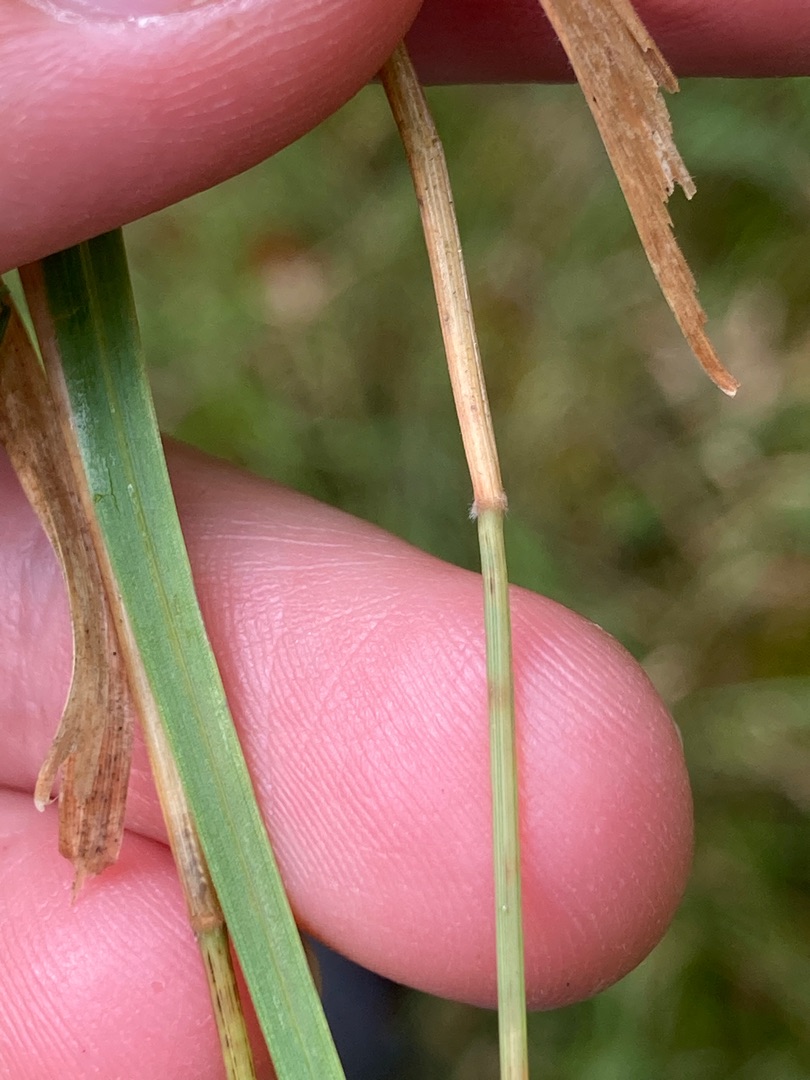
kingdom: Plantae
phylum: Tracheophyta
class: Liliopsida
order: Poales
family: Poaceae
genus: Holcus
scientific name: Holcus mollis
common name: Krybende hestegræs
